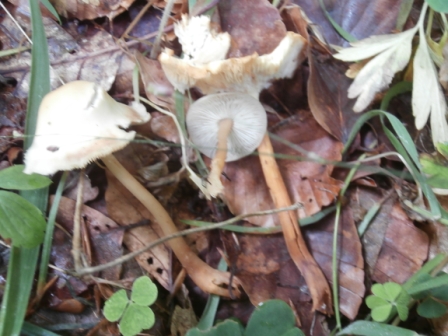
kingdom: Fungi
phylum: Basidiomycota
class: Agaricomycetes
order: Agaricales
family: Omphalotaceae
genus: Gymnopus
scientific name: Gymnopus aquosus
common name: bleg fladhat
